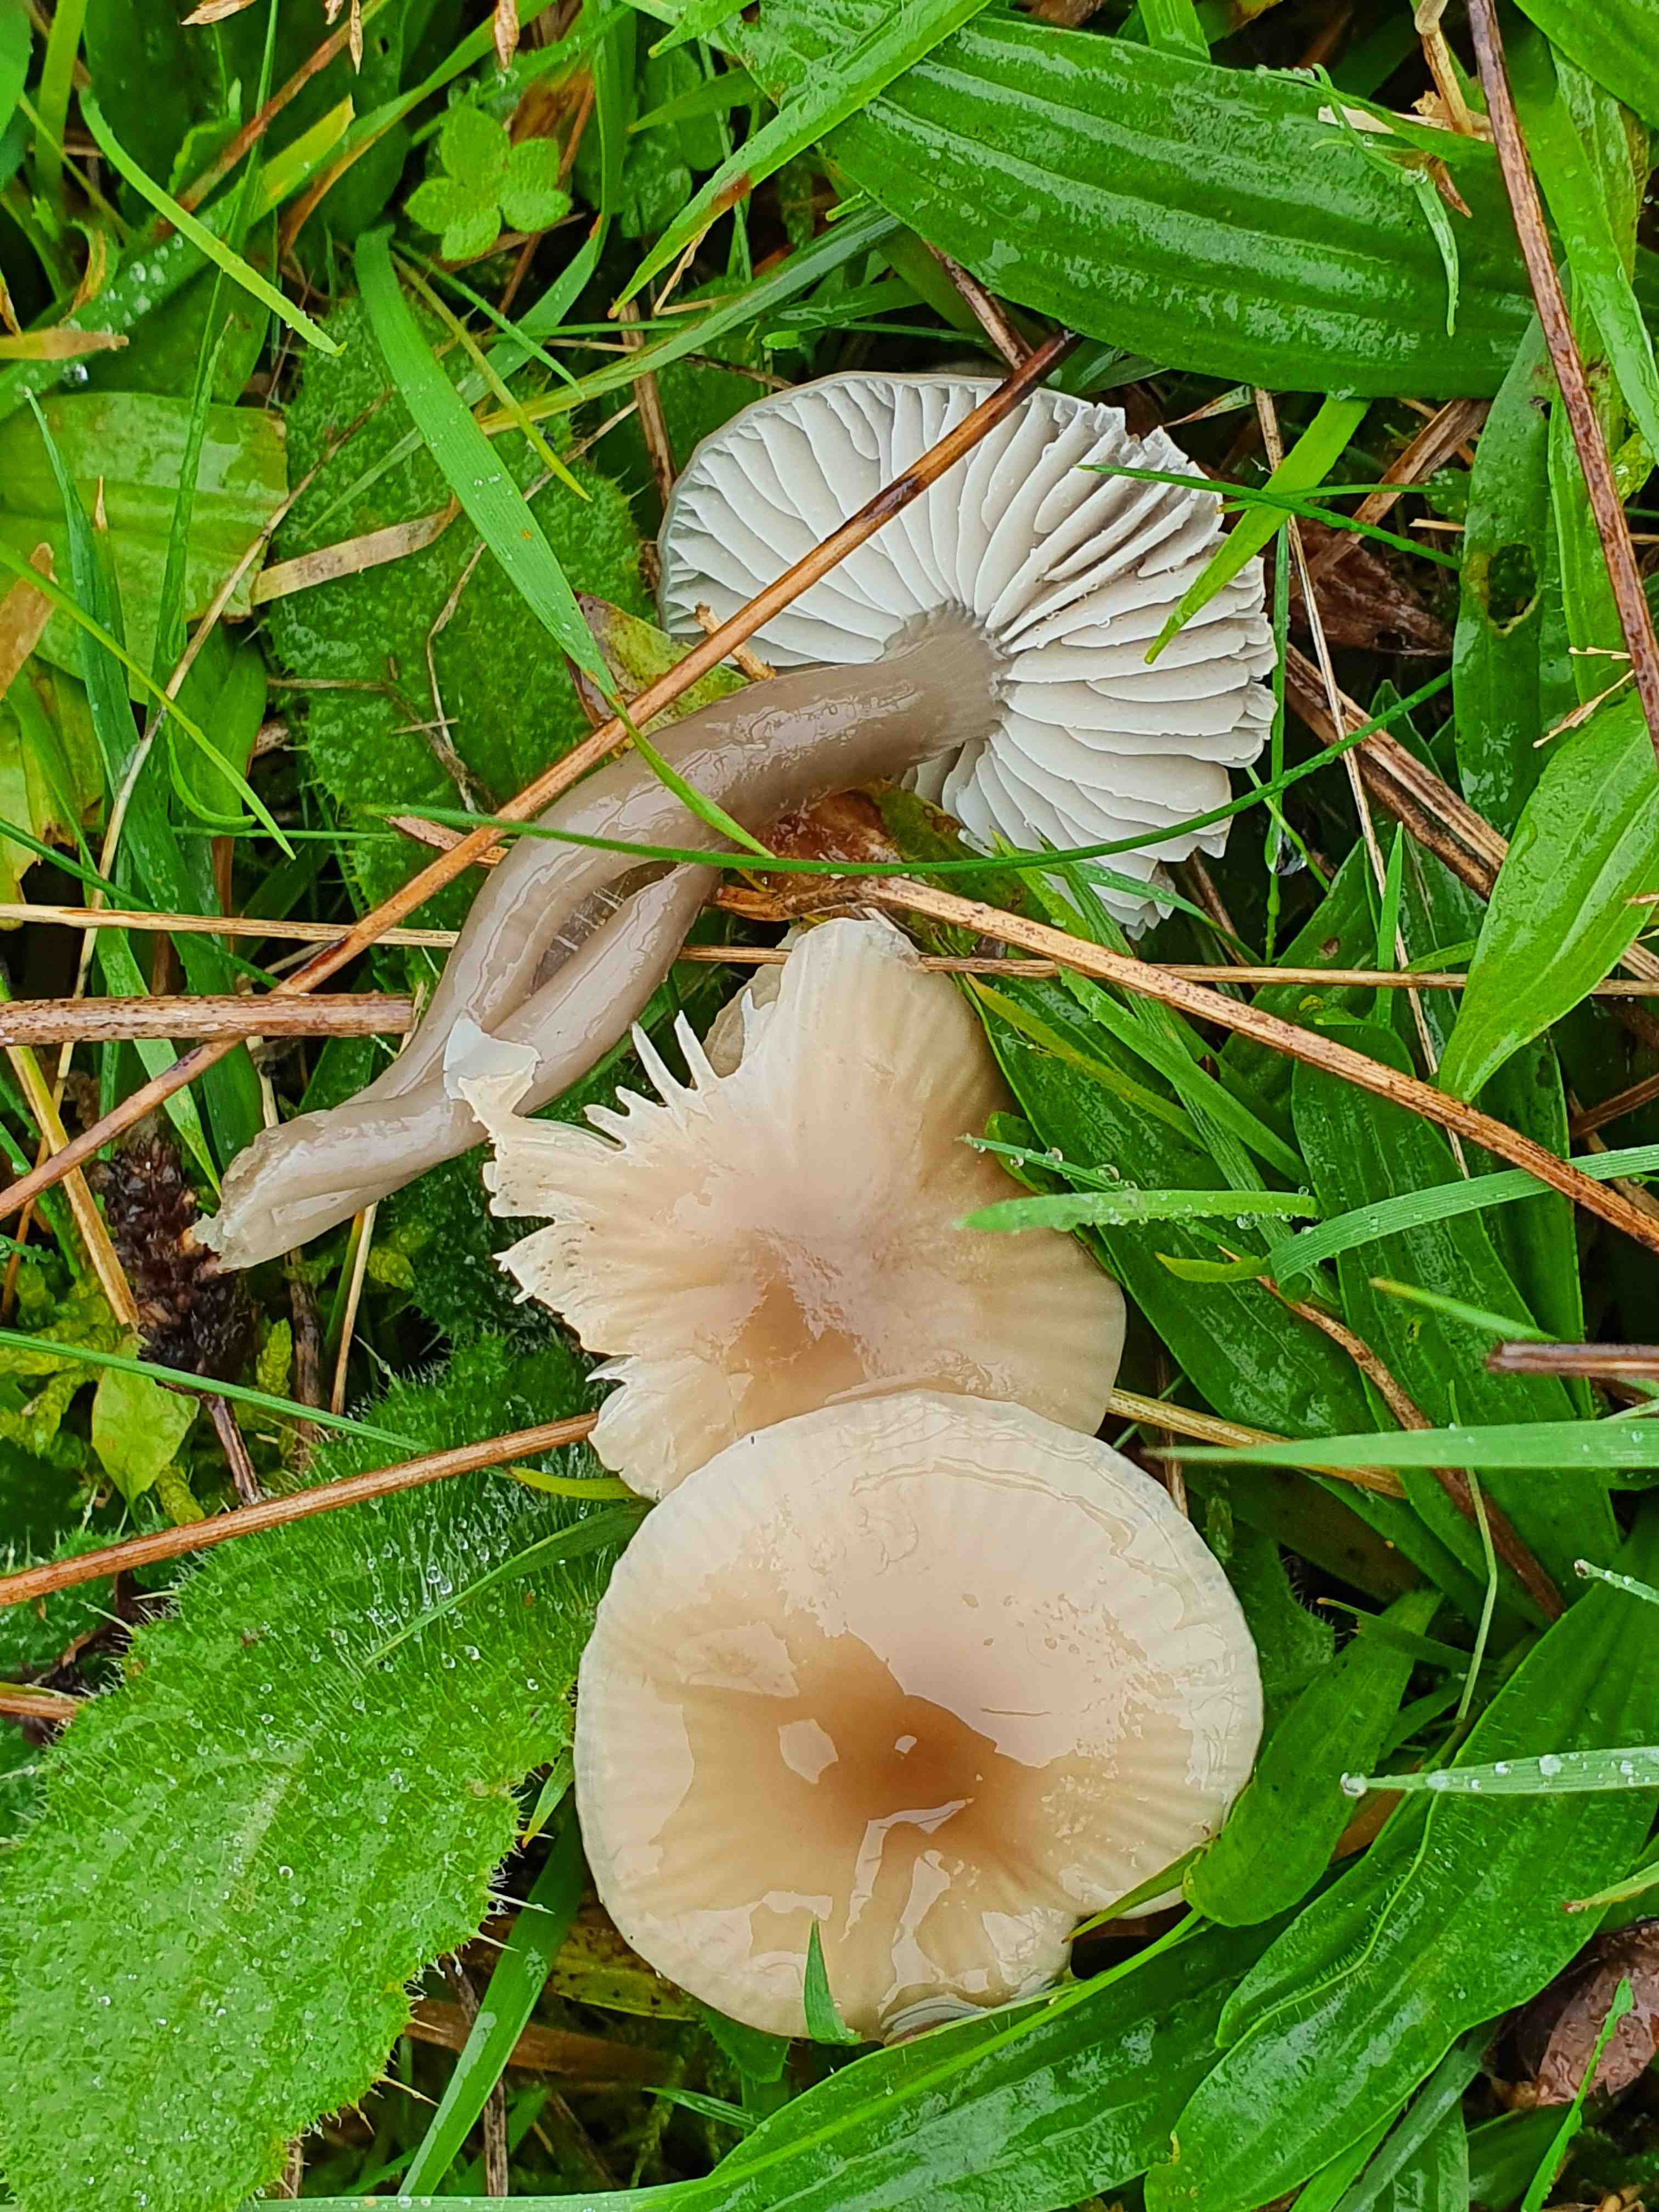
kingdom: Fungi
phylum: Basidiomycota
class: Agaricomycetes
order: Agaricales
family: Hygrophoraceae
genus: Gliophorus
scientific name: Gliophorus irrigatus
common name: slimet vokshat
